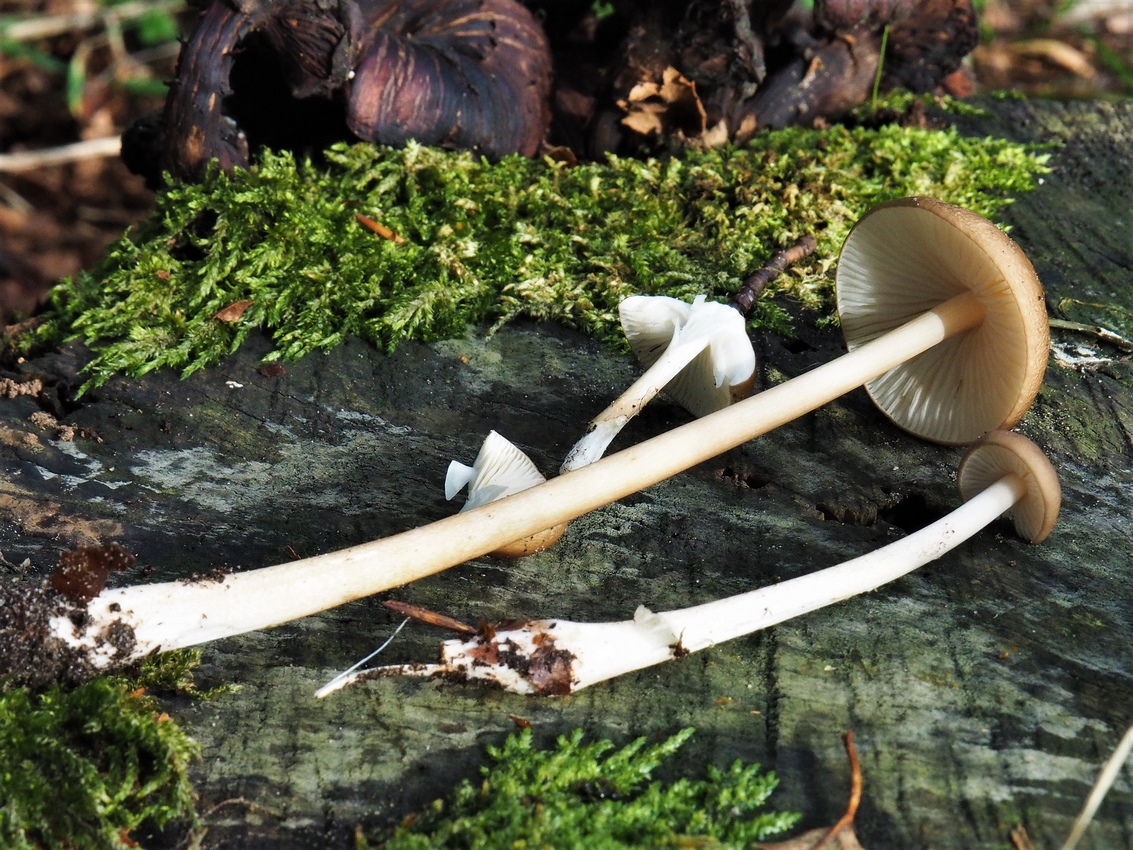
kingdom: Fungi
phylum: Basidiomycota
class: Agaricomycetes
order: Agaricales
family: Physalacriaceae
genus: Hymenopellis
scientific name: Hymenopellis radicata
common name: almindelig pælerodshat
